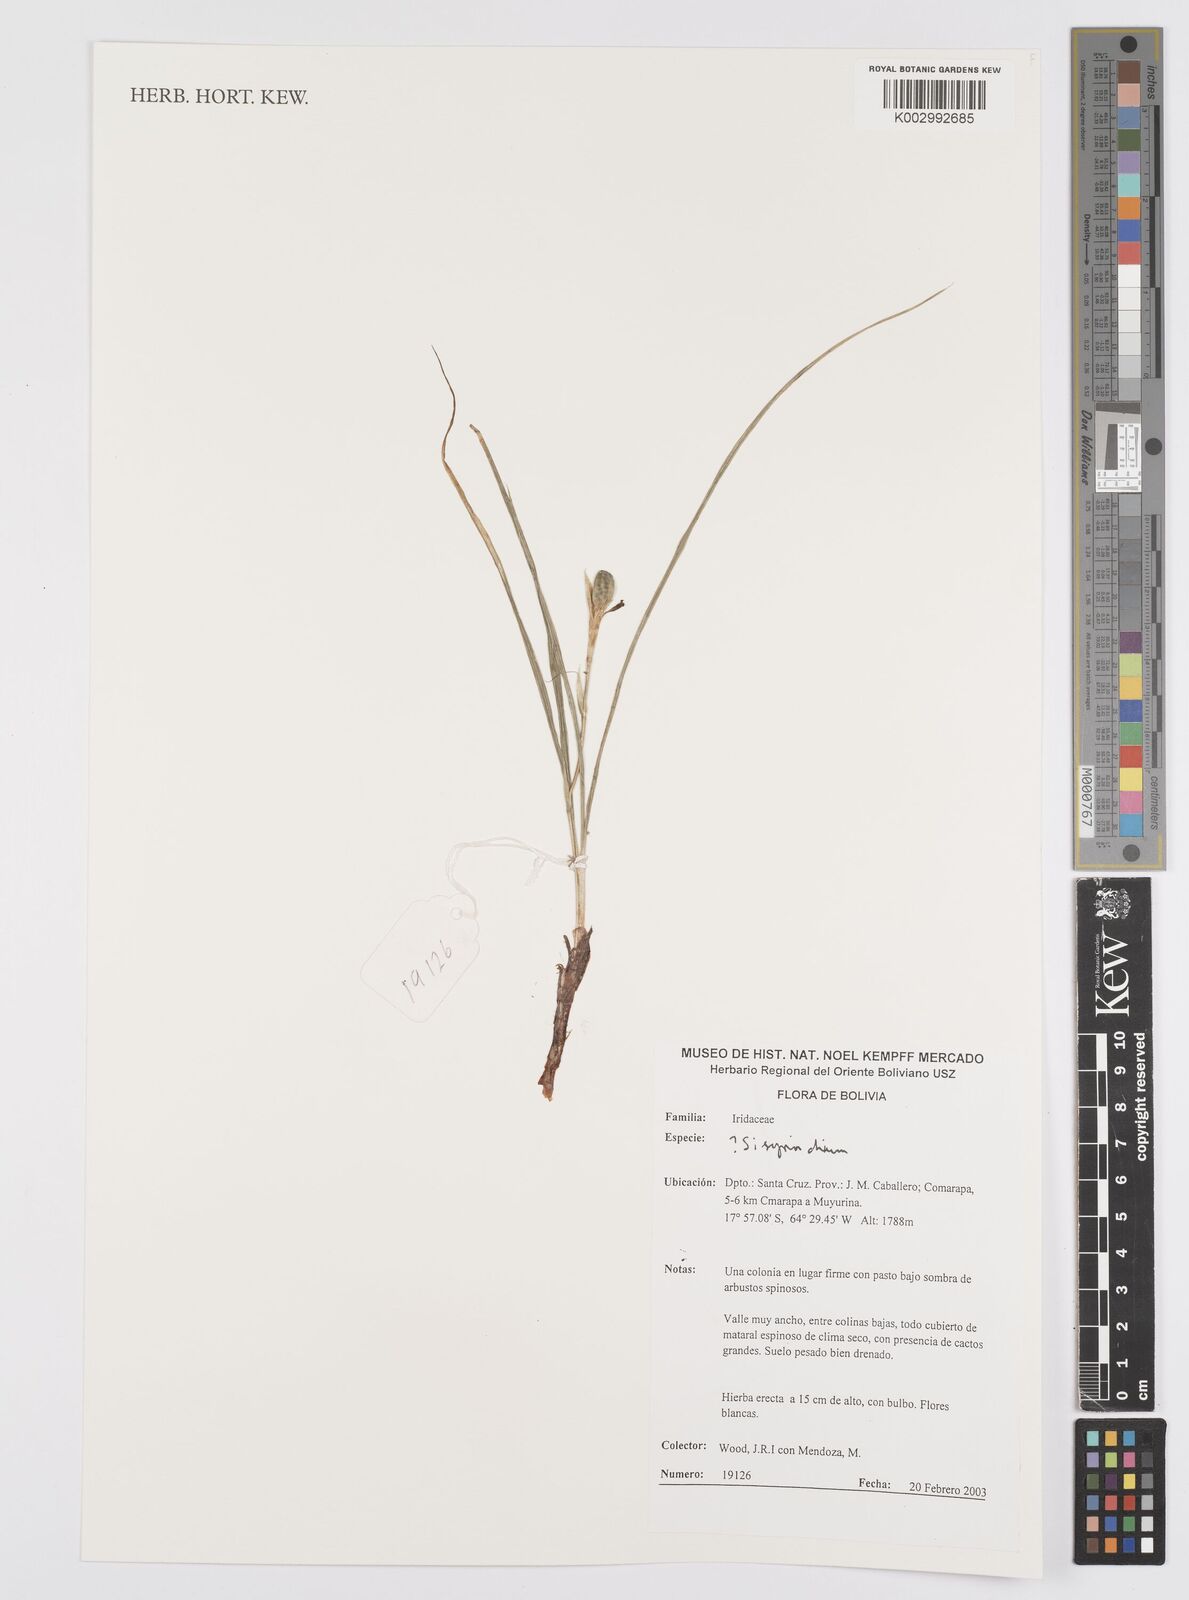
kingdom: Plantae
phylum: Tracheophyta
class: Liliopsida
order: Asparagales
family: Iridaceae
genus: Sisyrinchium
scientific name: Sisyrinchium
